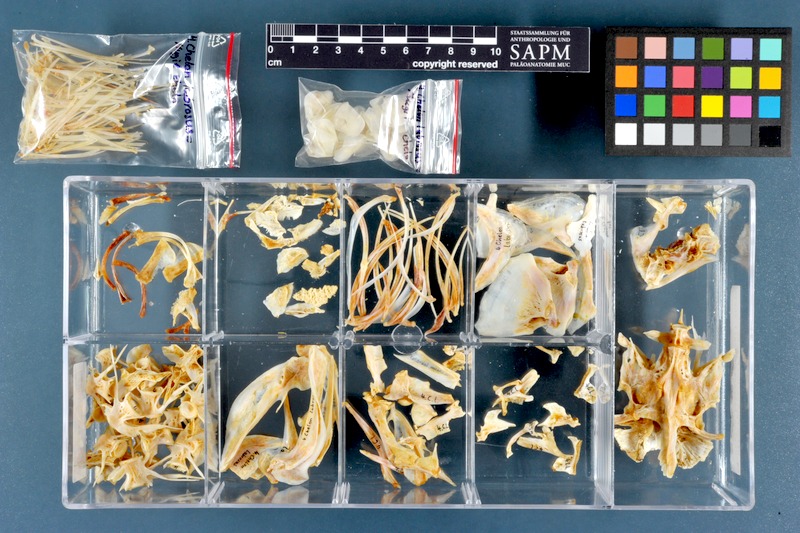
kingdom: Animalia
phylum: Chordata
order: Mugiliformes
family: Mugilidae
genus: Chelon
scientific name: Chelon labrosus
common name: Thick-lipped mullet
